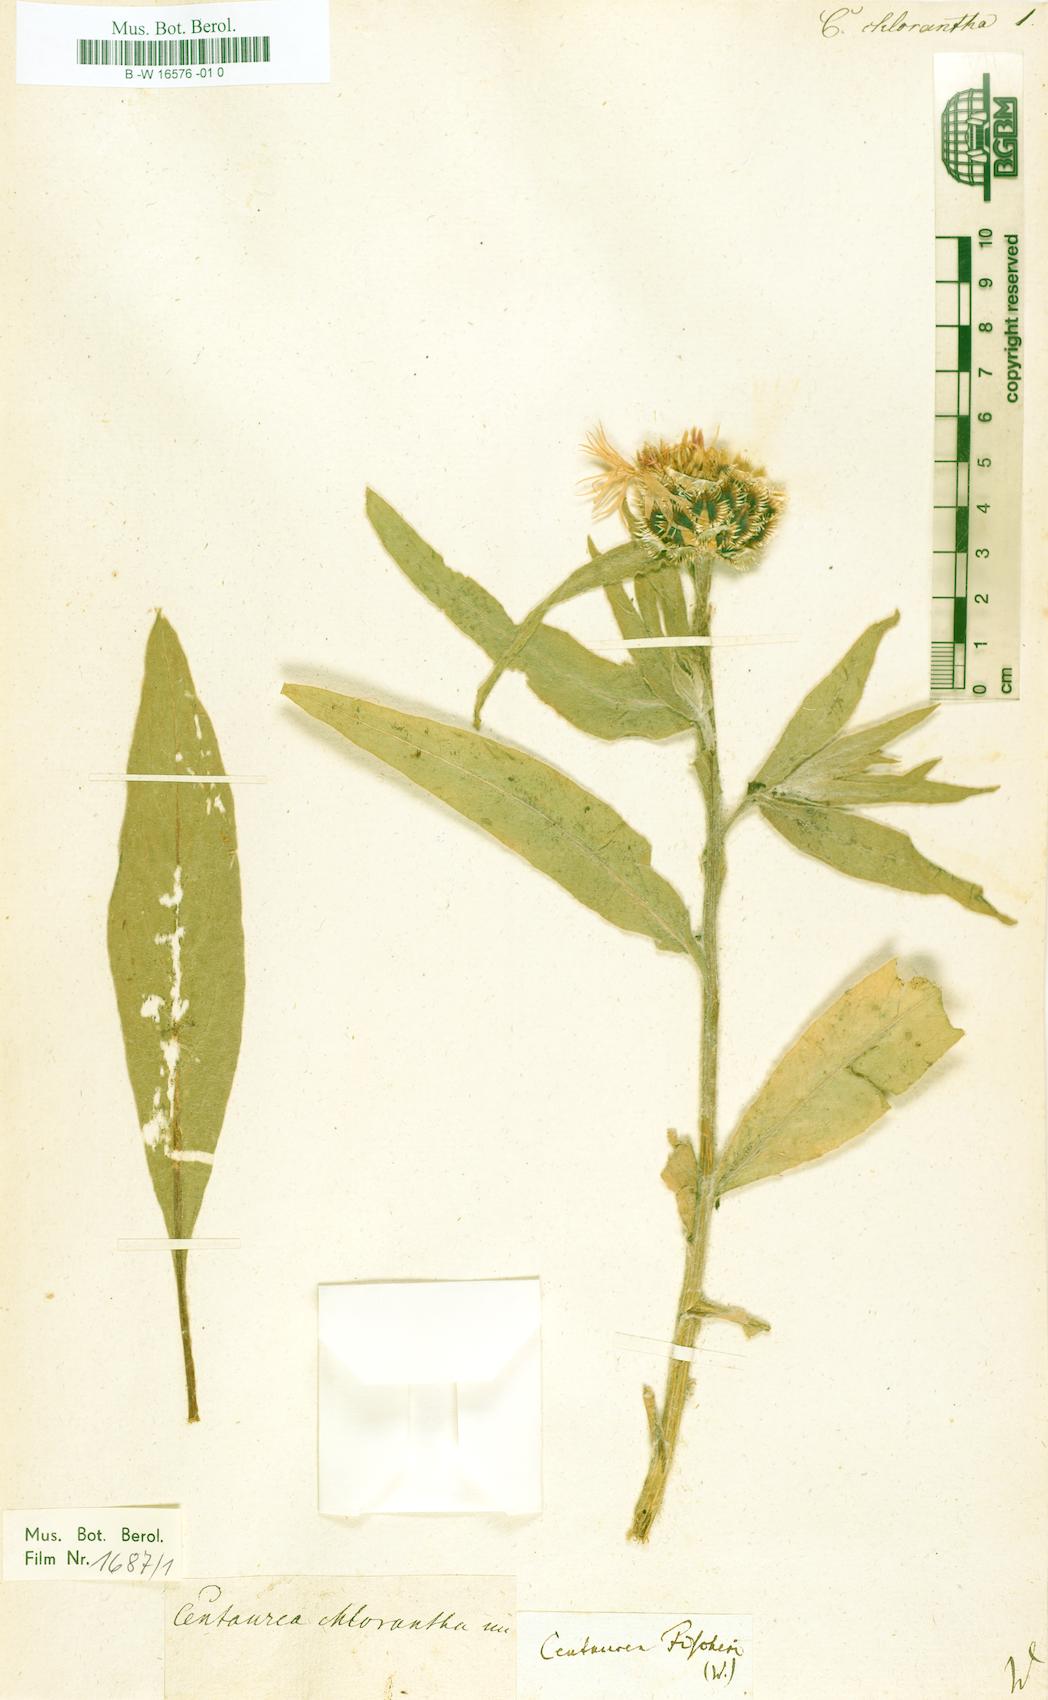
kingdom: Plantae
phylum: Tracheophyta
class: Magnoliopsida
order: Asterales
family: Asteraceae
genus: Centaurea
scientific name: Centaurea cheiranthifolia
